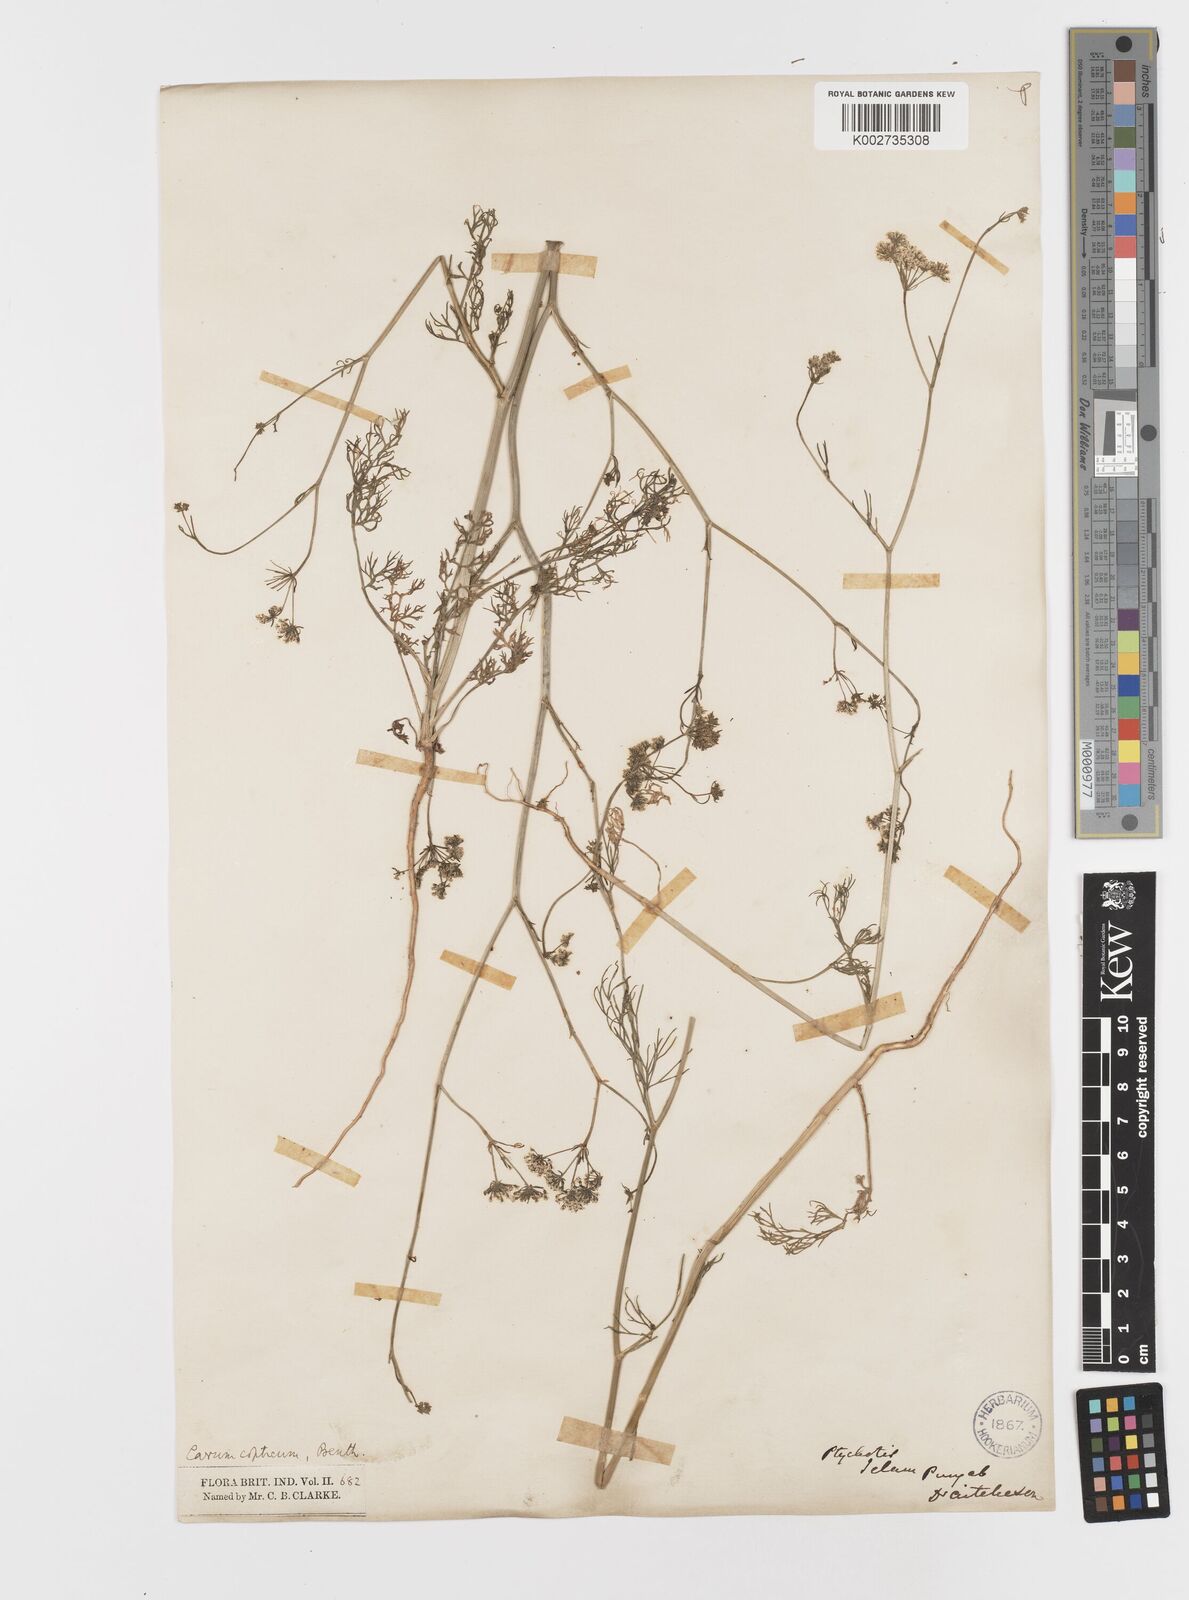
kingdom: Plantae
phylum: Tracheophyta
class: Magnoliopsida
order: Apiales
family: Apiaceae
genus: Trachyspermum
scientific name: Trachyspermum ammi
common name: Ajowan
